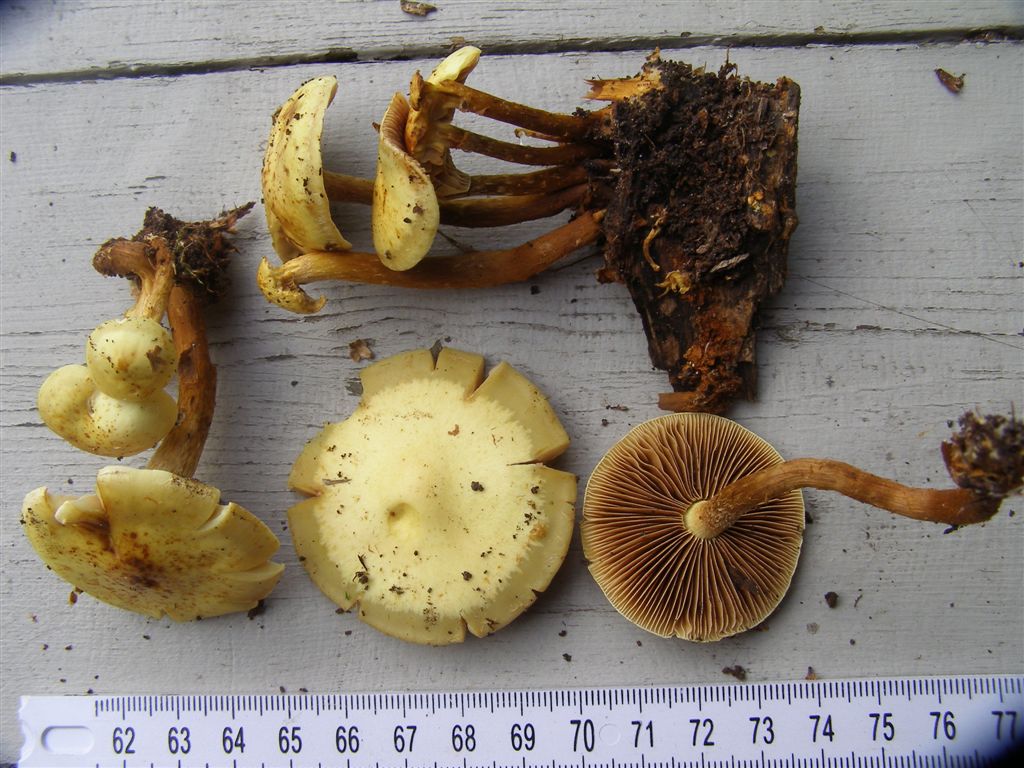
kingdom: Fungi
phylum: Basidiomycota
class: Agaricomycetes
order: Agaricales
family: Hymenogastraceae
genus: Flammula
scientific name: Flammula alnicola
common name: elle-skælhat
